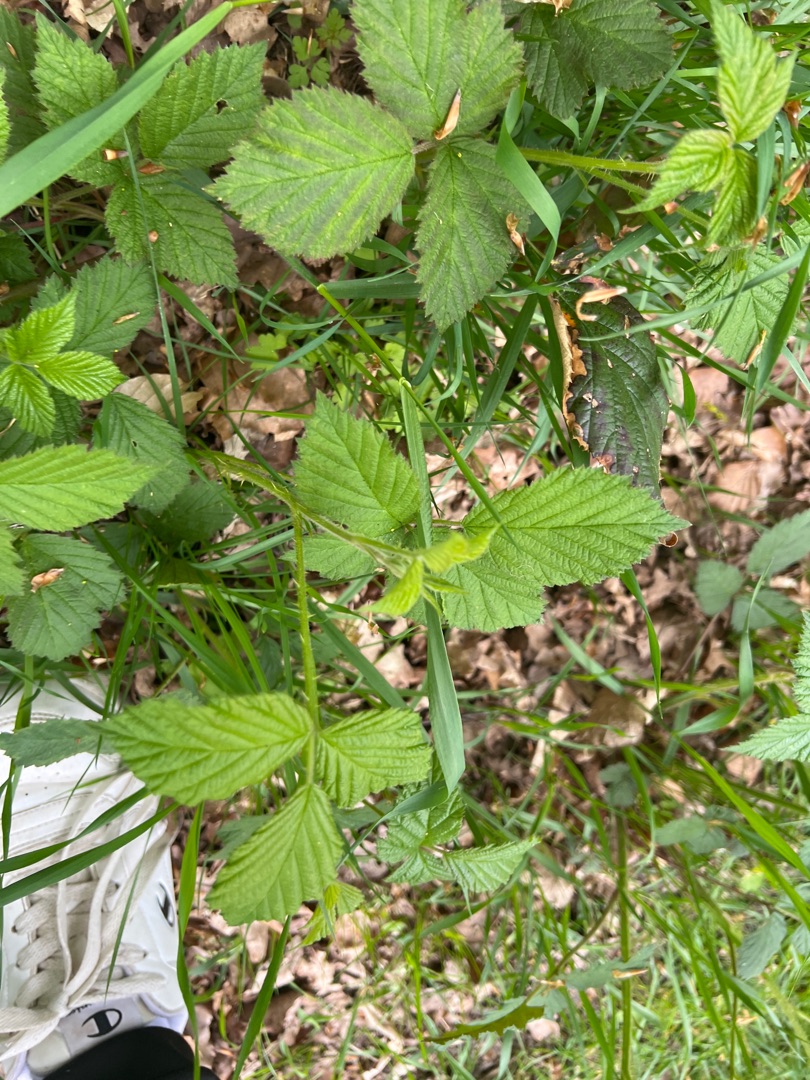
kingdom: Plantae
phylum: Tracheophyta
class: Magnoliopsida
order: Rosales
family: Rosaceae
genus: Rubus
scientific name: Rubus
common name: Klyngerslægten
